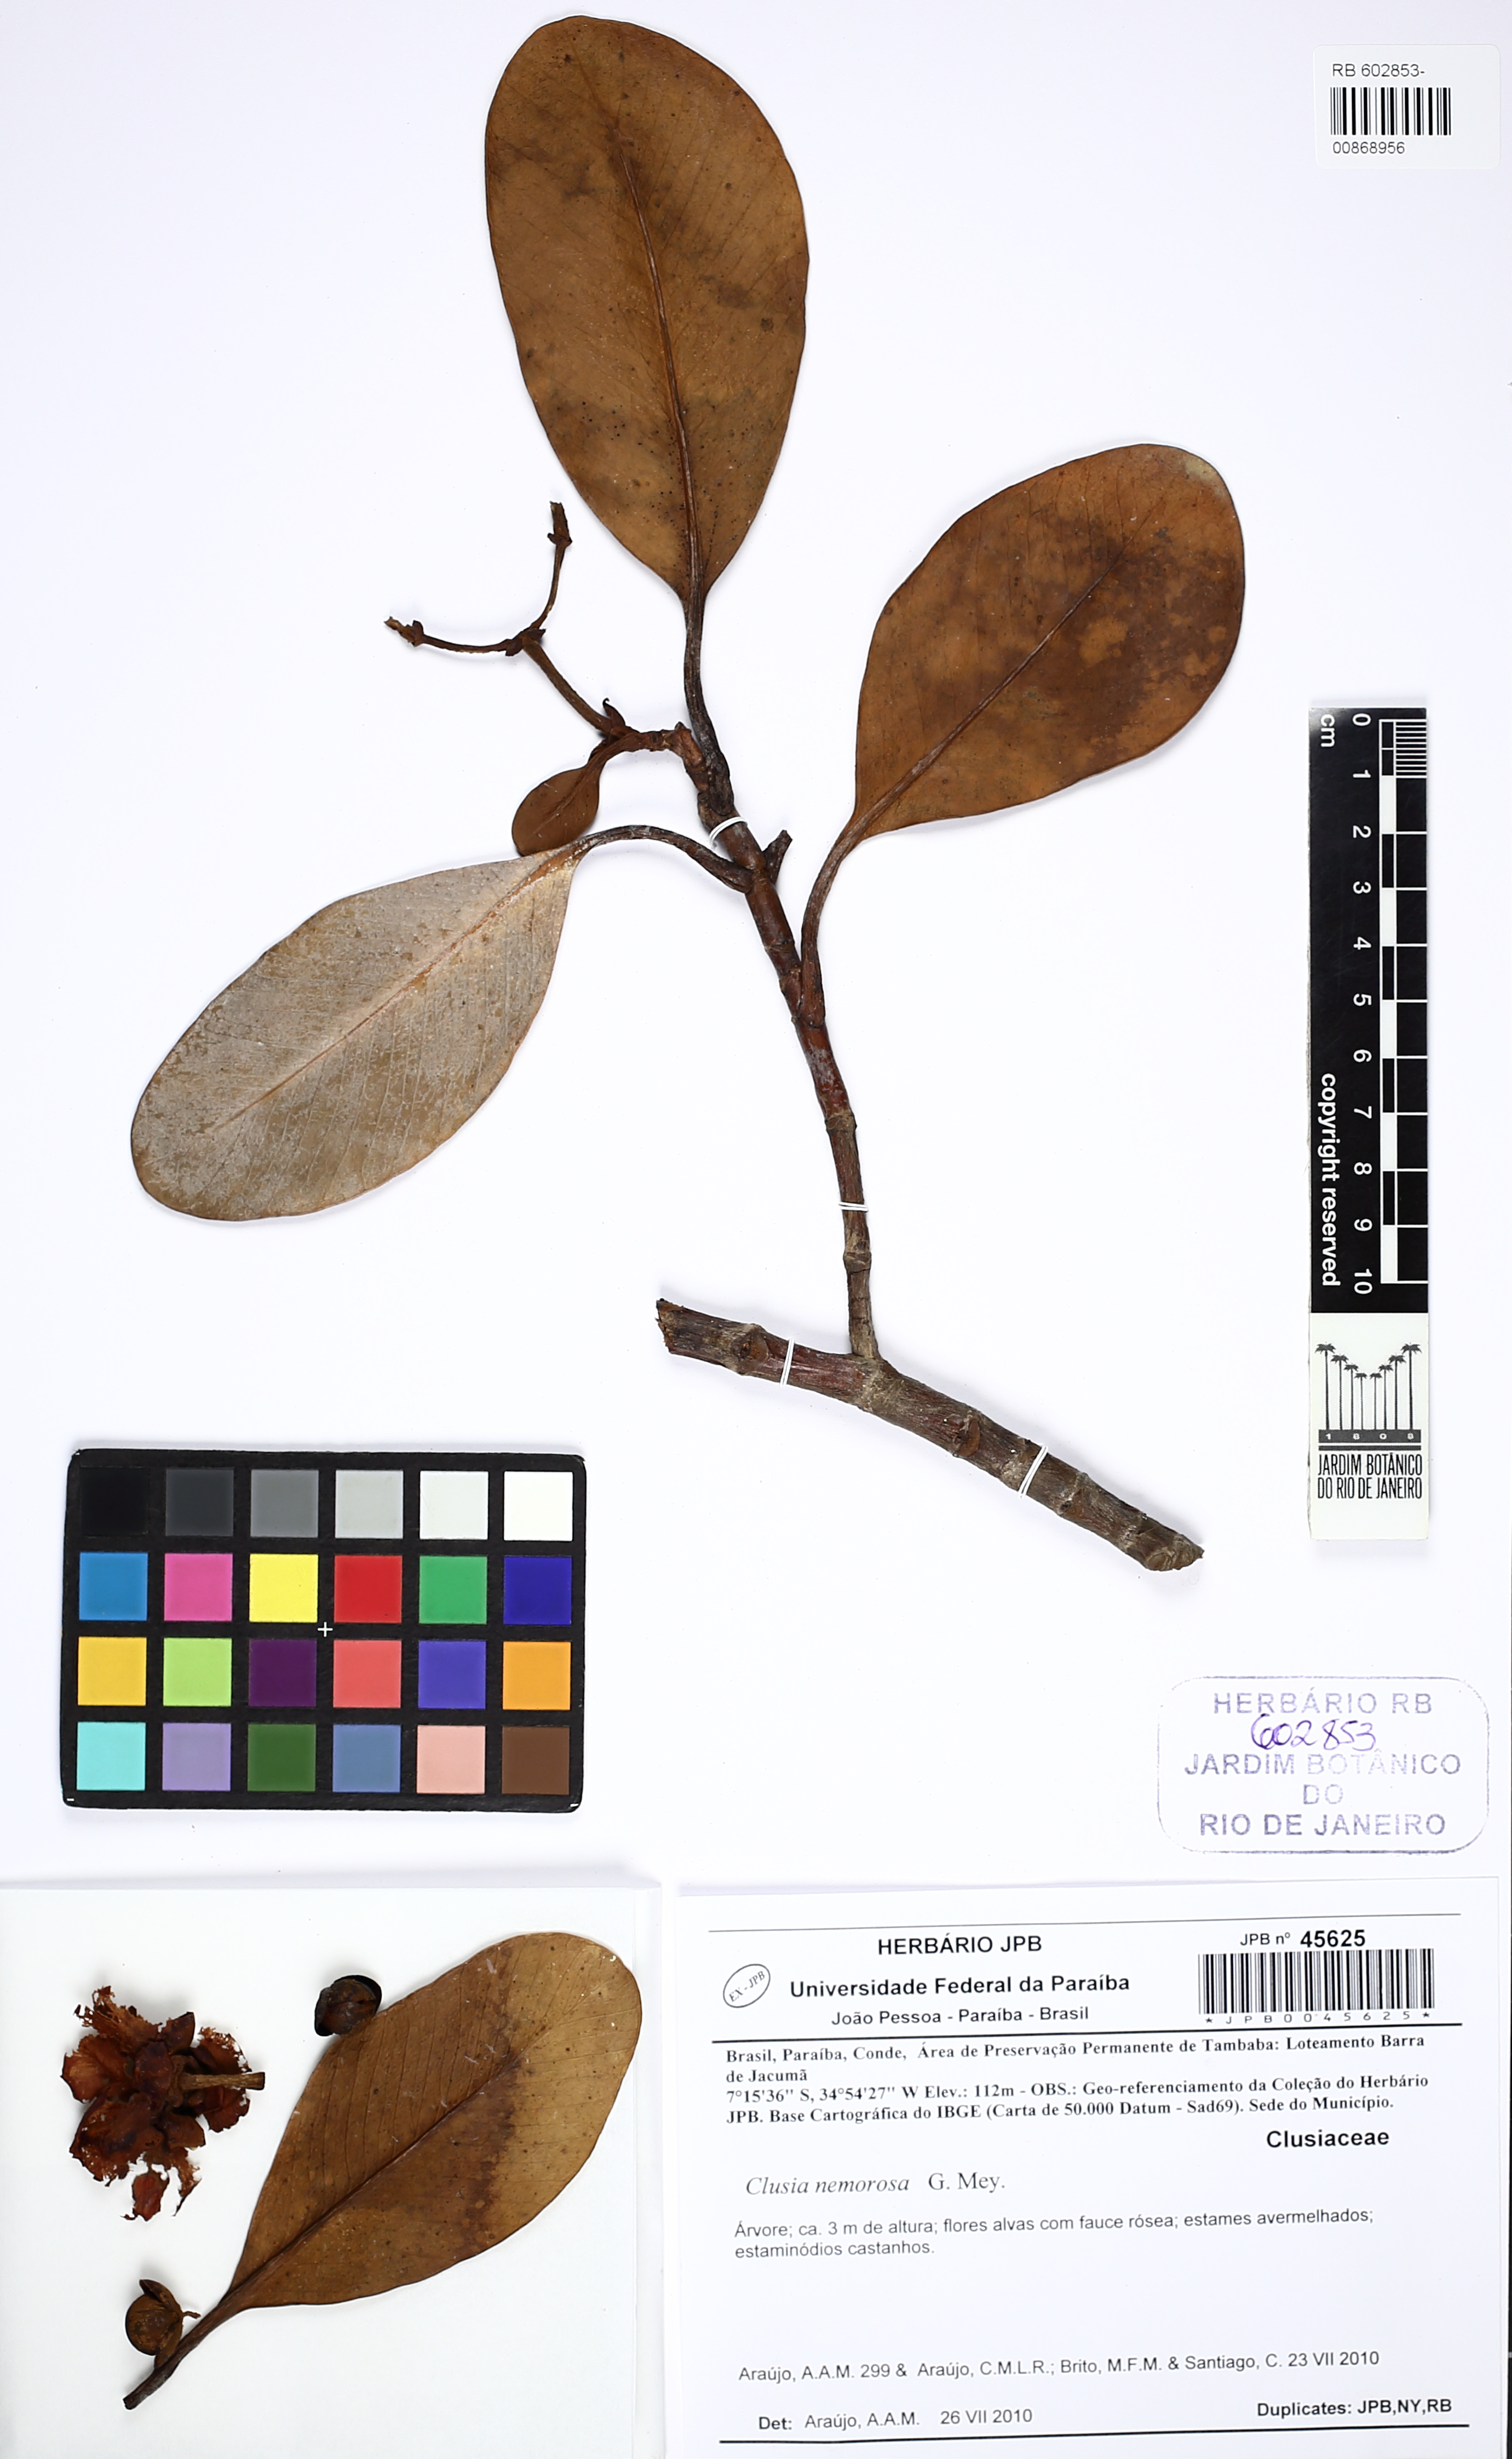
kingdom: Plantae
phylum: Tracheophyta
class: Magnoliopsida
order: Malpighiales
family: Clusiaceae
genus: Clusia
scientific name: Clusia nemorosa
